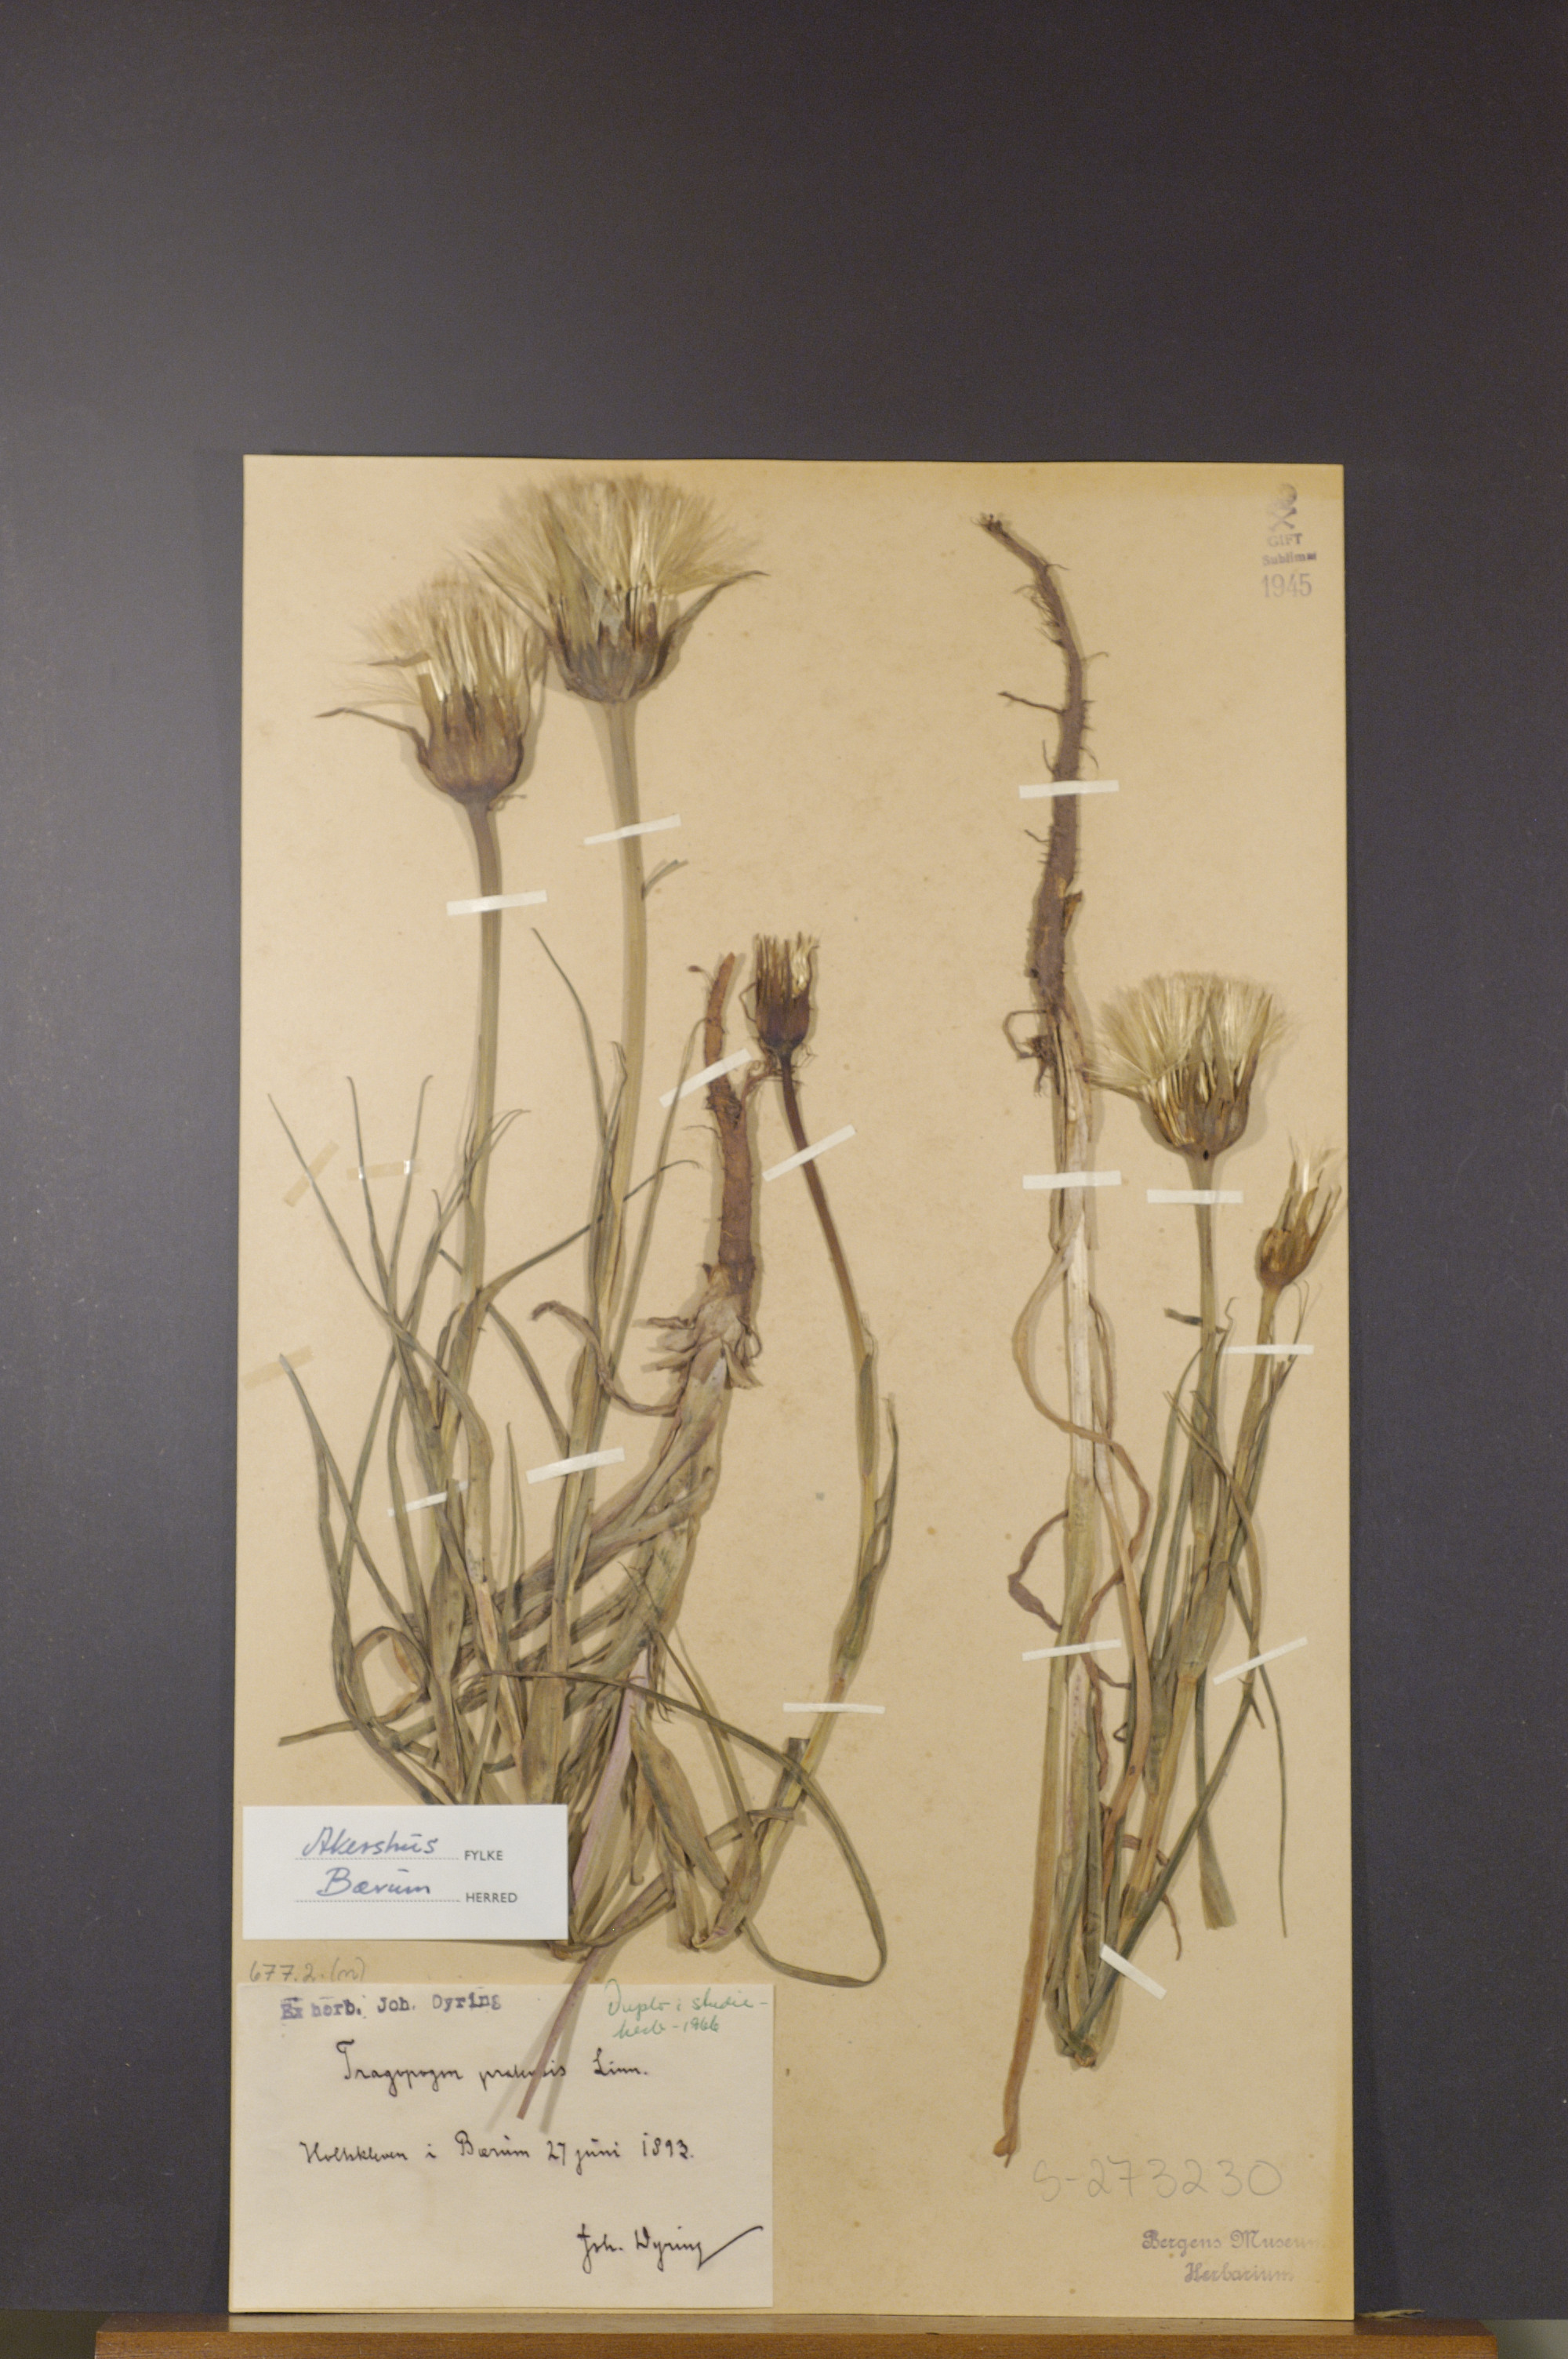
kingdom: Plantae
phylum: Tracheophyta
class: Magnoliopsida
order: Asterales
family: Asteraceae
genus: Tragopogon
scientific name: Tragopogon pratensis
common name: Goat's-beard
